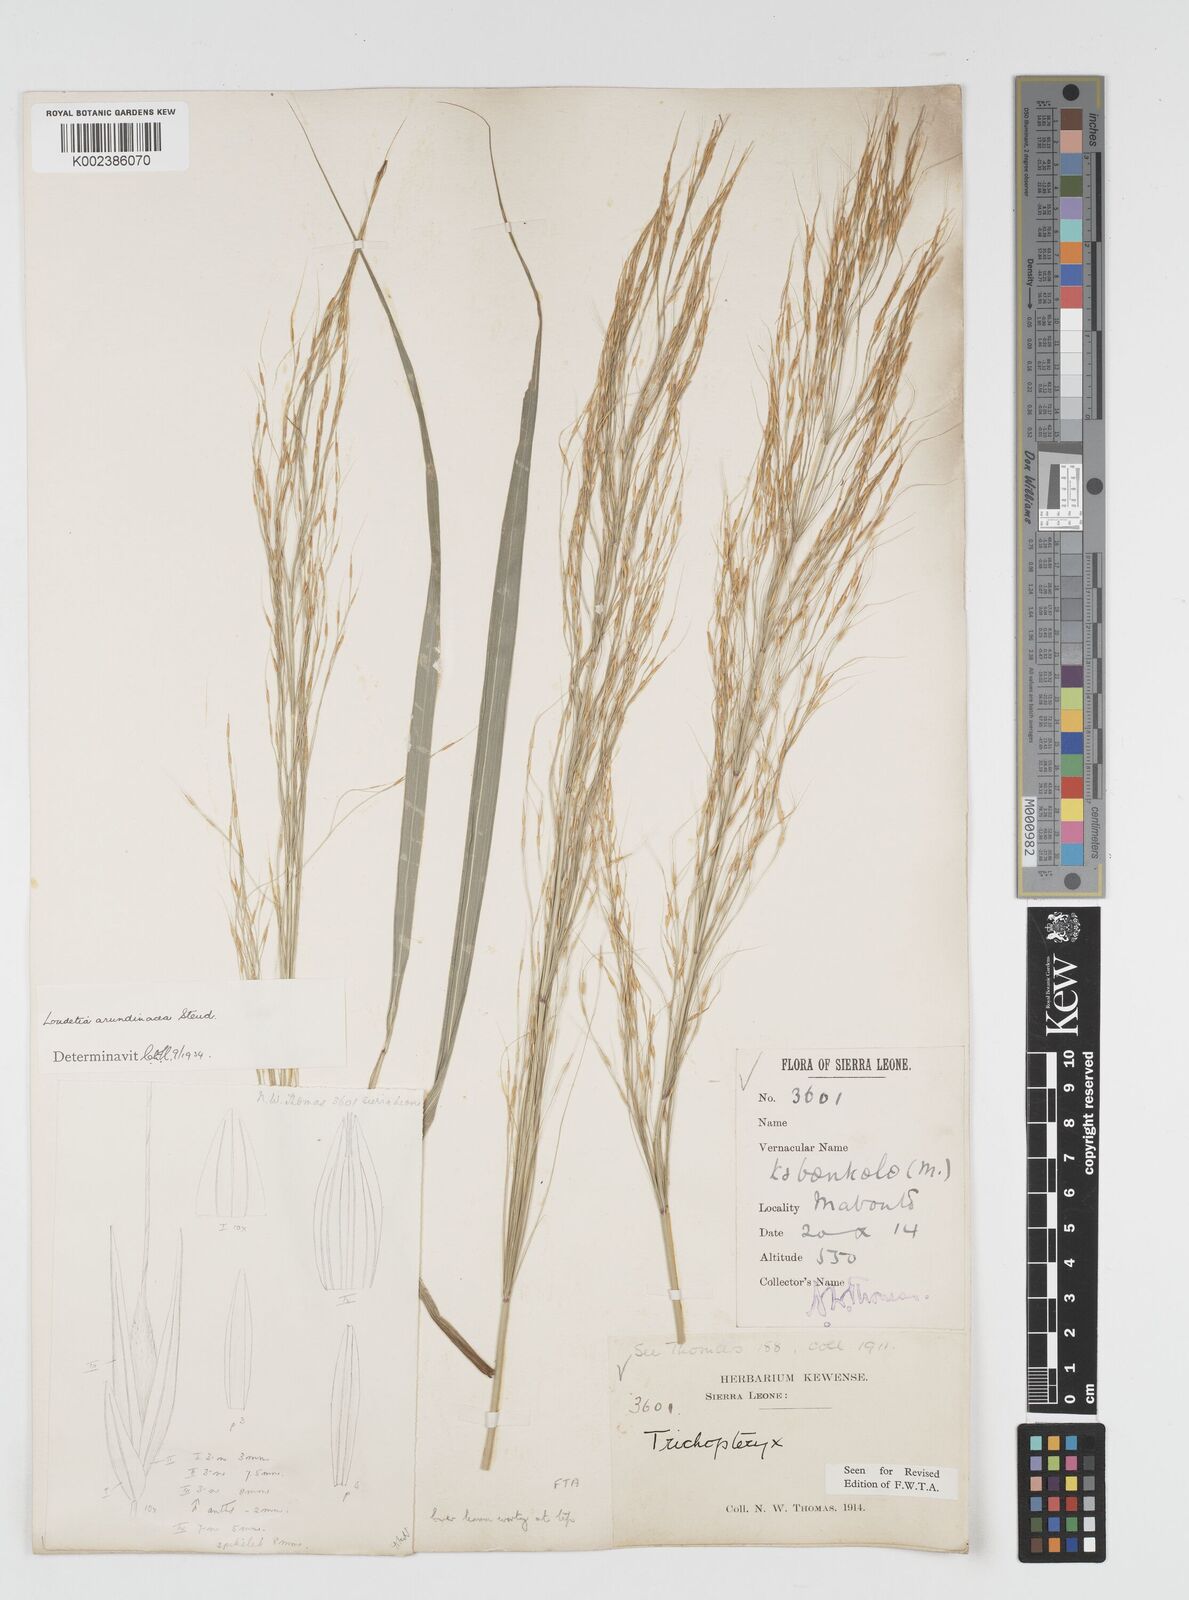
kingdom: Plantae
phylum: Tracheophyta
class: Liliopsida
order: Poales
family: Poaceae
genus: Loudetia
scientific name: Loudetia arundinacea
